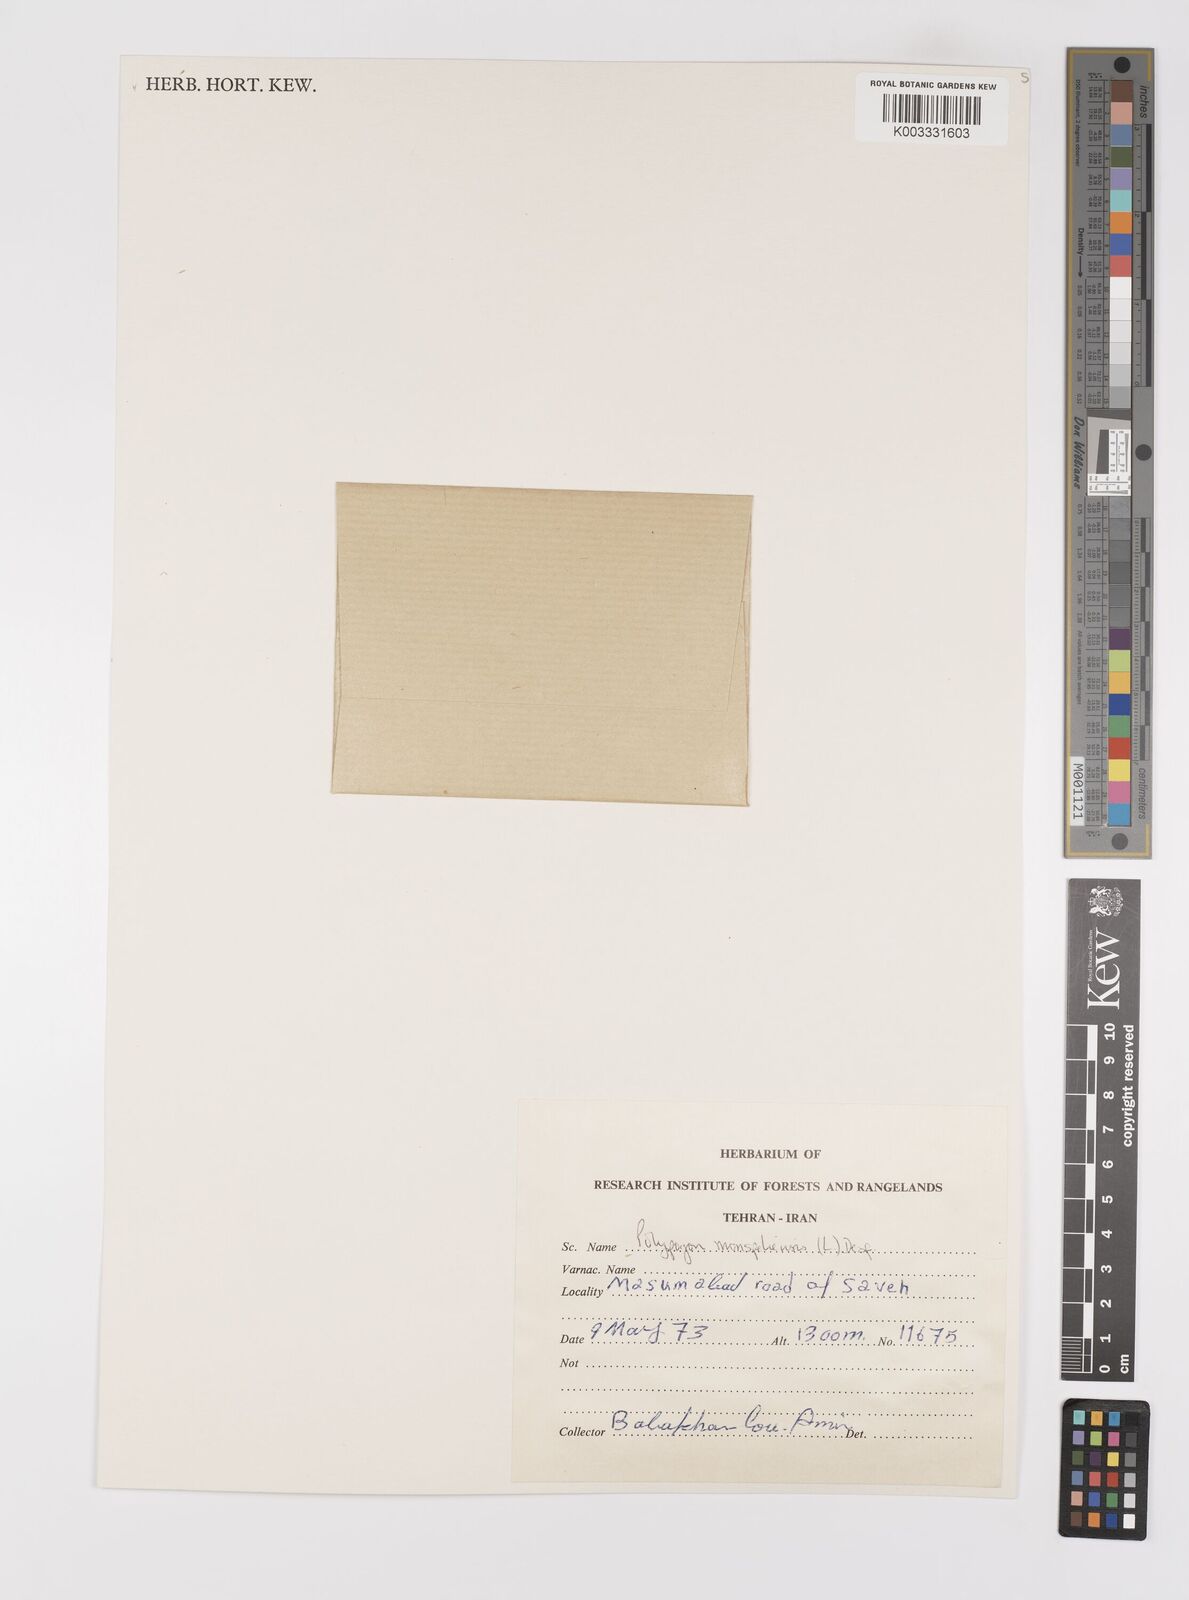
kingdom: Plantae
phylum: Tracheophyta
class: Liliopsida
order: Poales
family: Poaceae
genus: Polypogon
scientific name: Polypogon monspeliensis
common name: Annual rabbitsfoot grass
